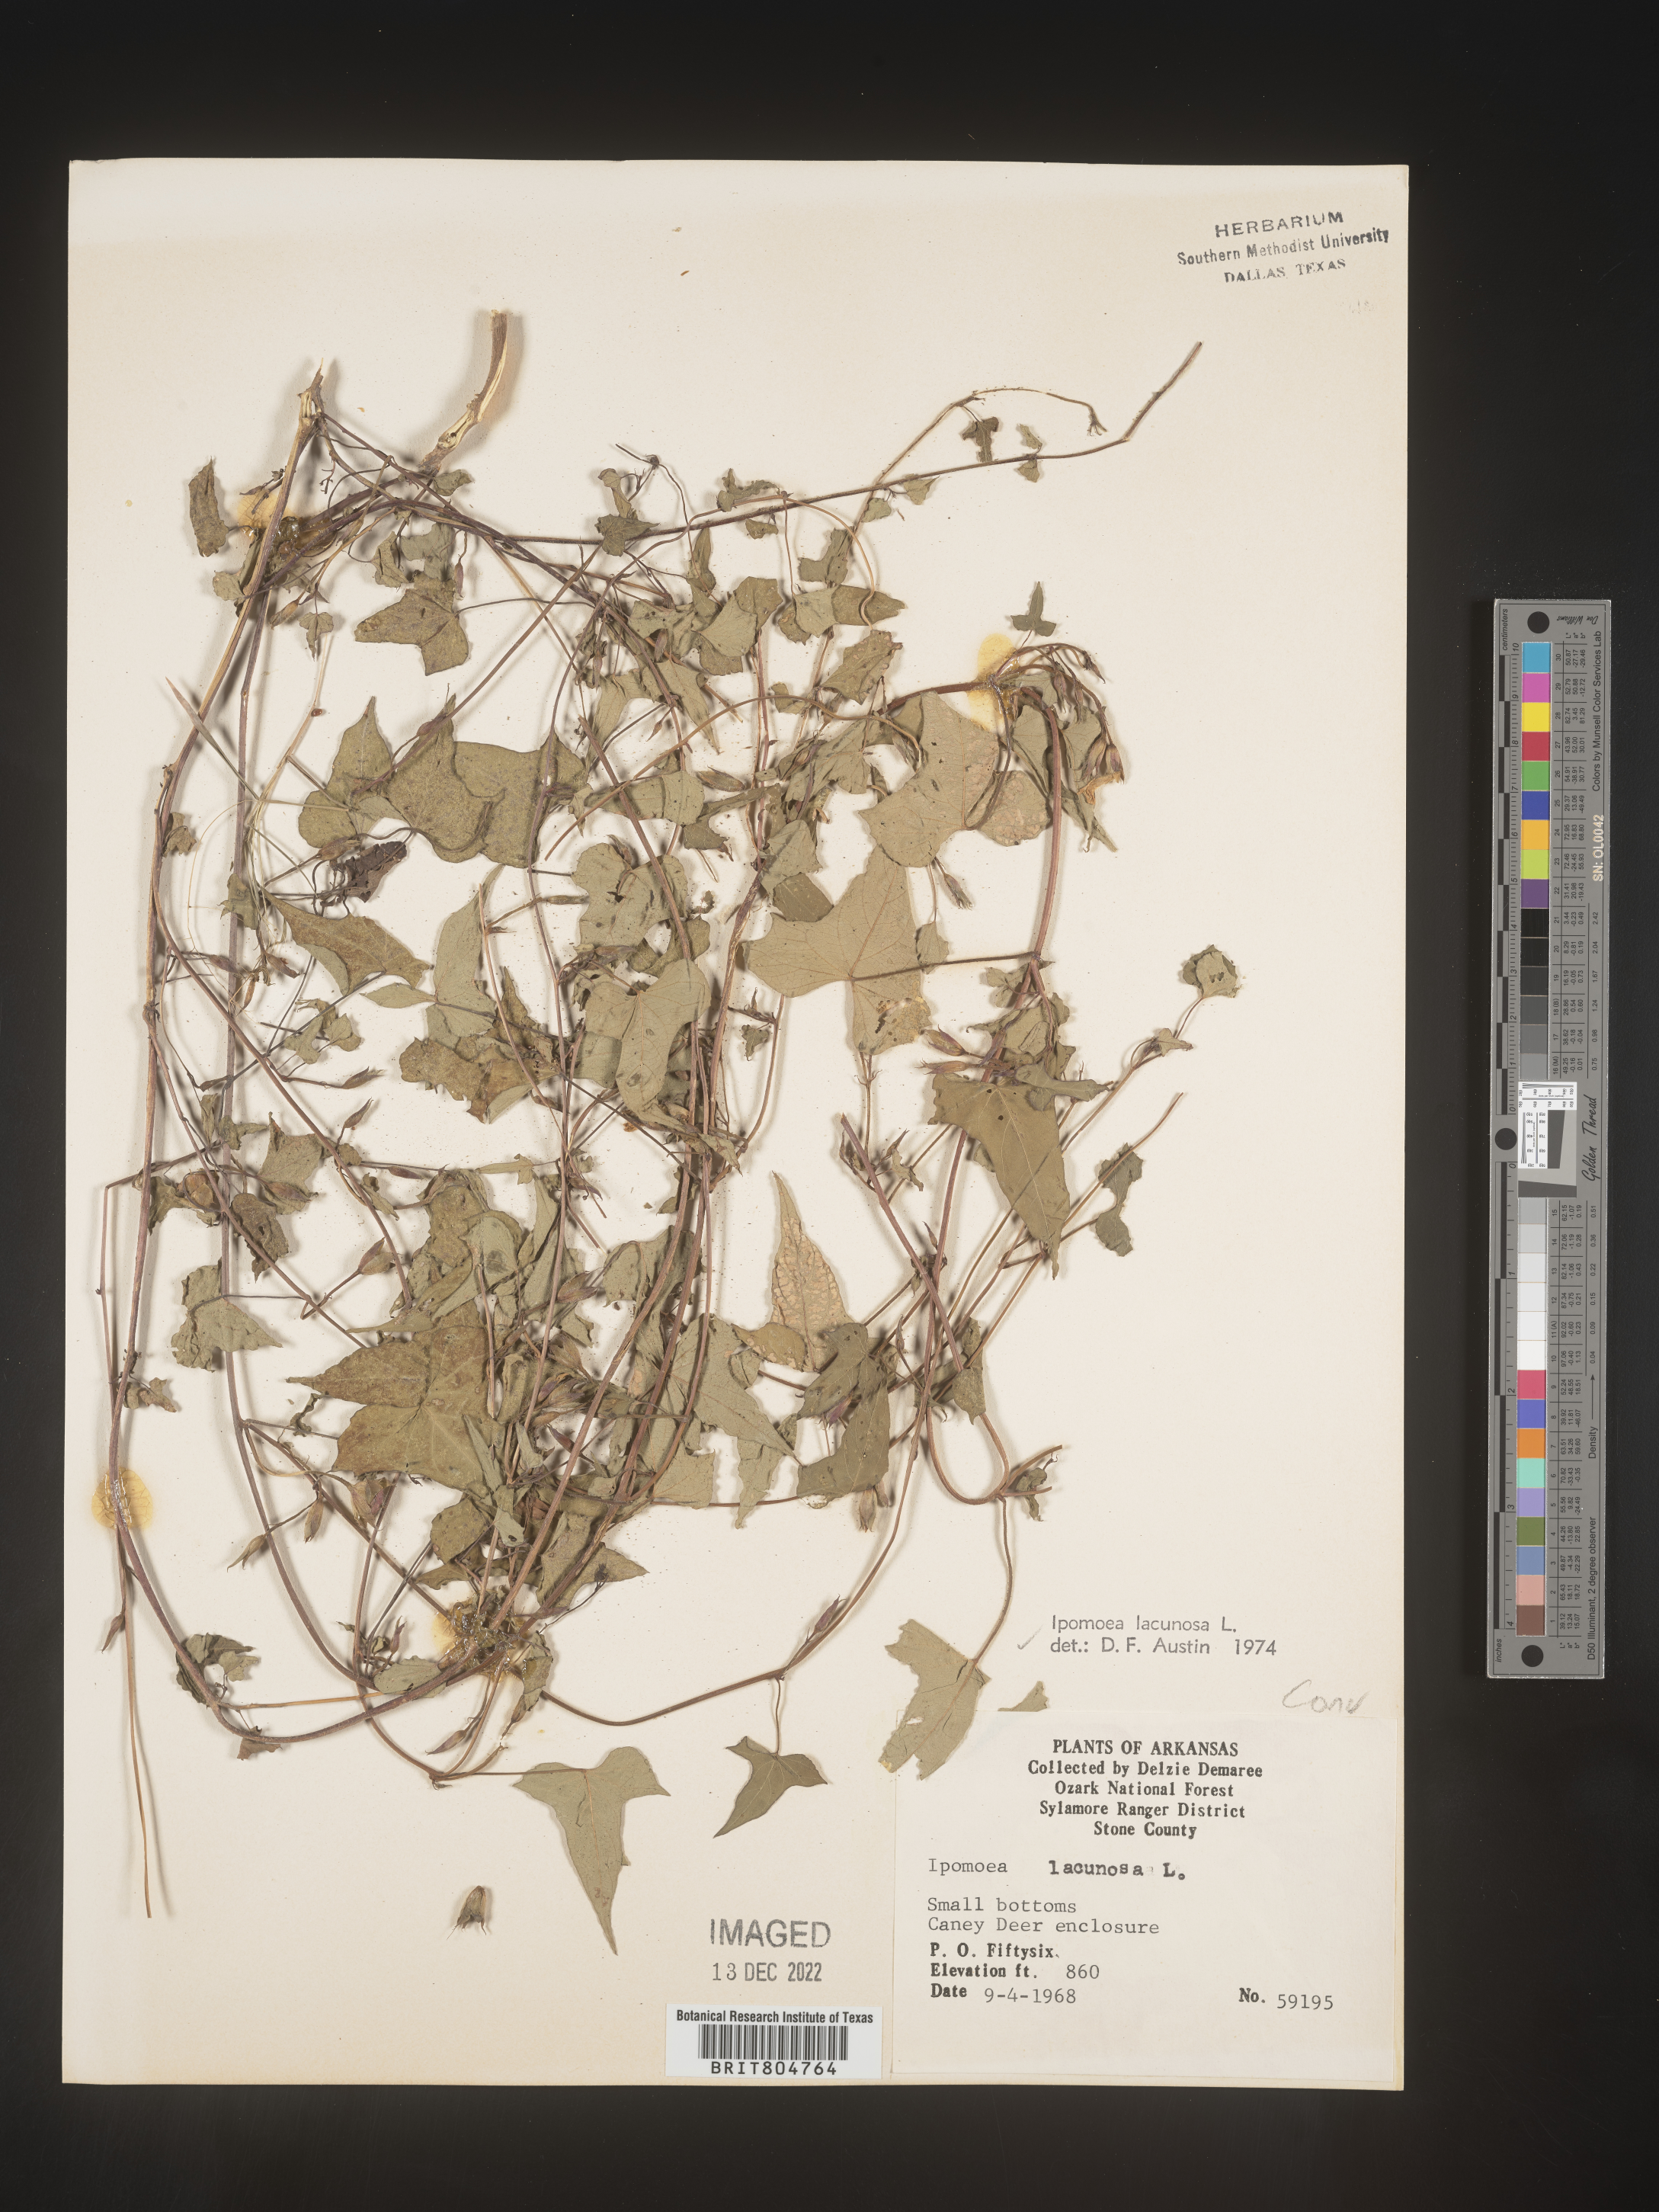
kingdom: Plantae
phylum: Tracheophyta
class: Magnoliopsida
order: Solanales
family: Convolvulaceae
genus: Ipomoea
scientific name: Ipomoea lacunosa
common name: White morning-glory
